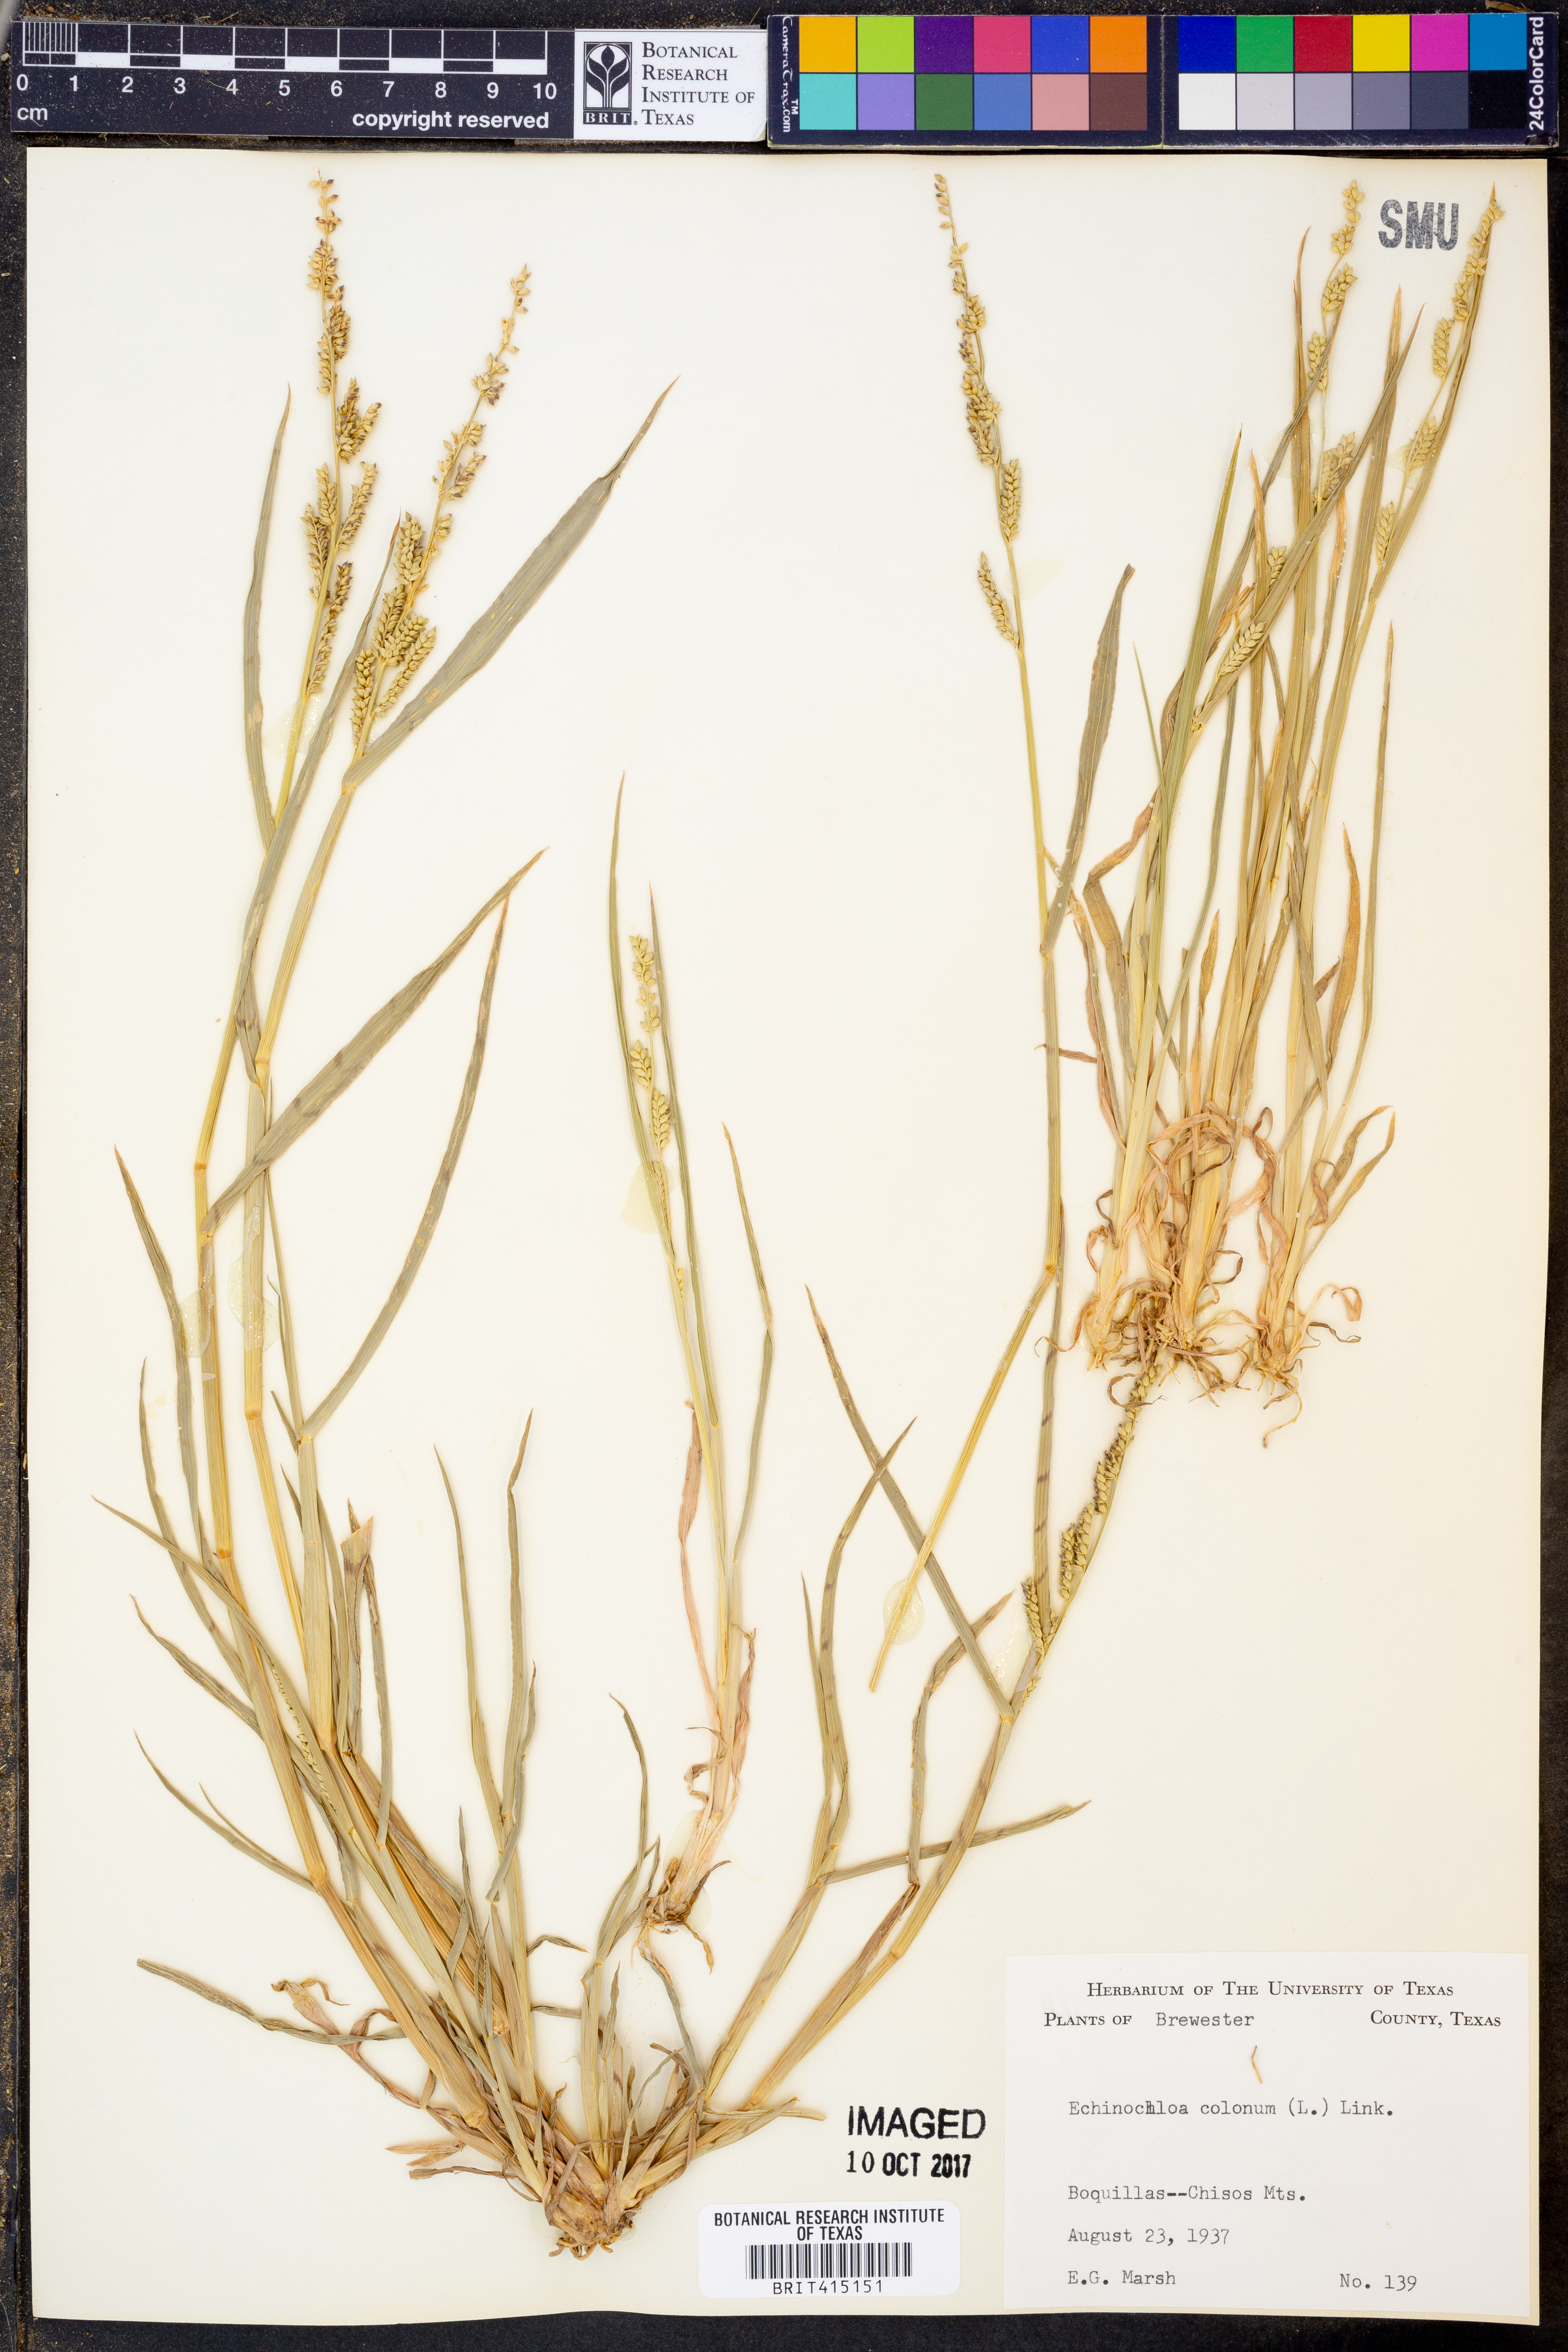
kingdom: Plantae
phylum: Tracheophyta
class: Liliopsida
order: Poales
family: Poaceae
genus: Echinochloa
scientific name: Echinochloa colonum
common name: Jungle rice
